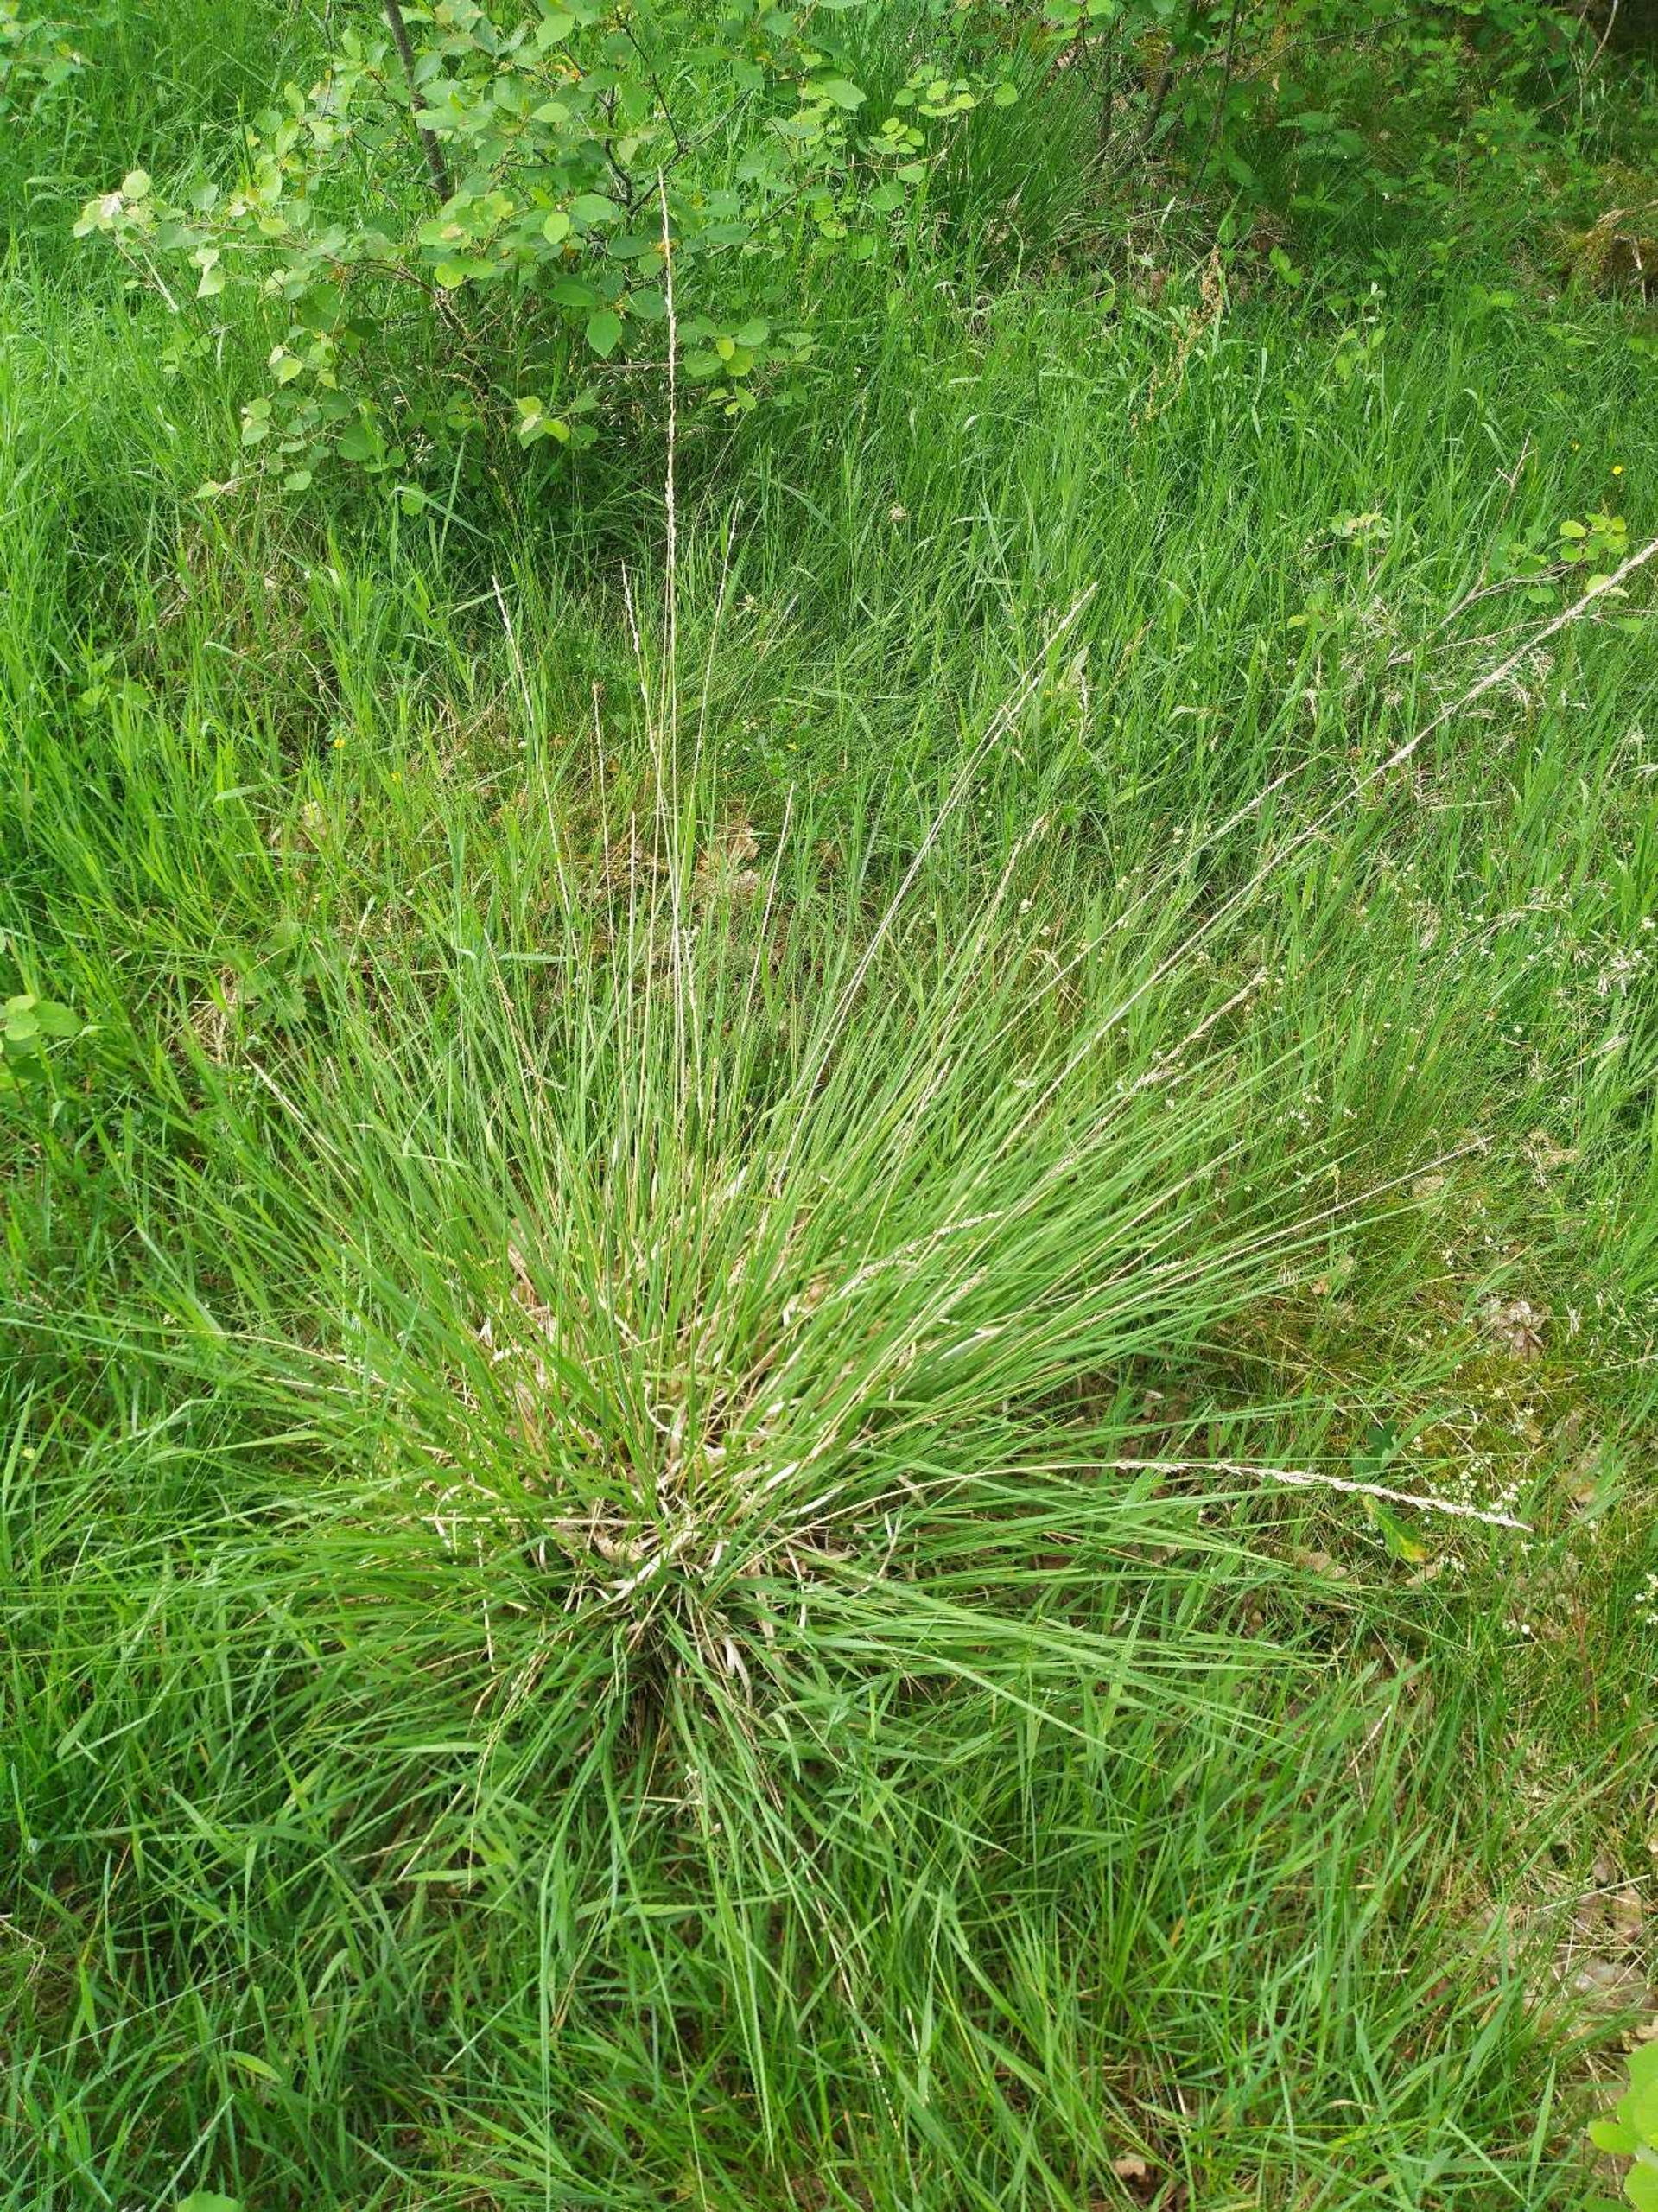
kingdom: Plantae
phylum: Tracheophyta
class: Liliopsida
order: Poales
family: Poaceae
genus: Molinia
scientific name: Molinia caerulea
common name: Blåtop
